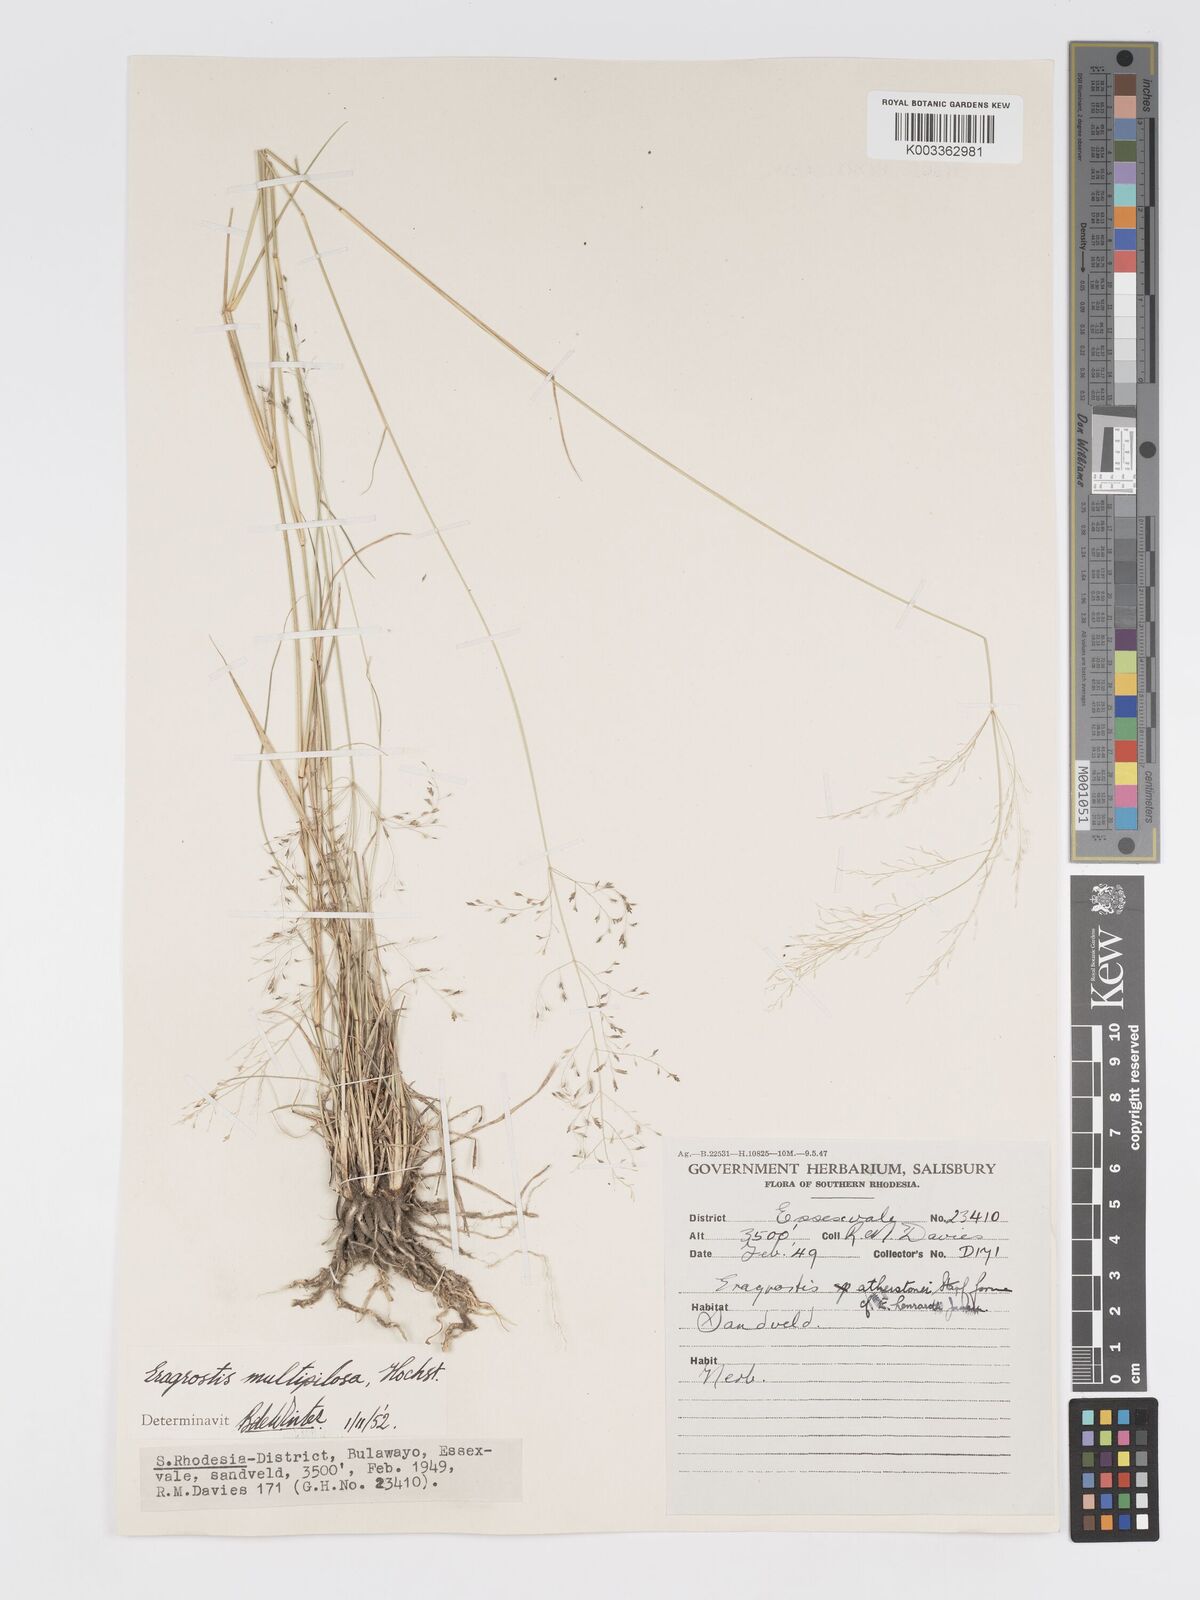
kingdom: Plantae
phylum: Tracheophyta
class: Liliopsida
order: Poales
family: Poaceae
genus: Eragrostis
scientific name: Eragrostis cylindriflora
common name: Cylinderflower lovegrass
